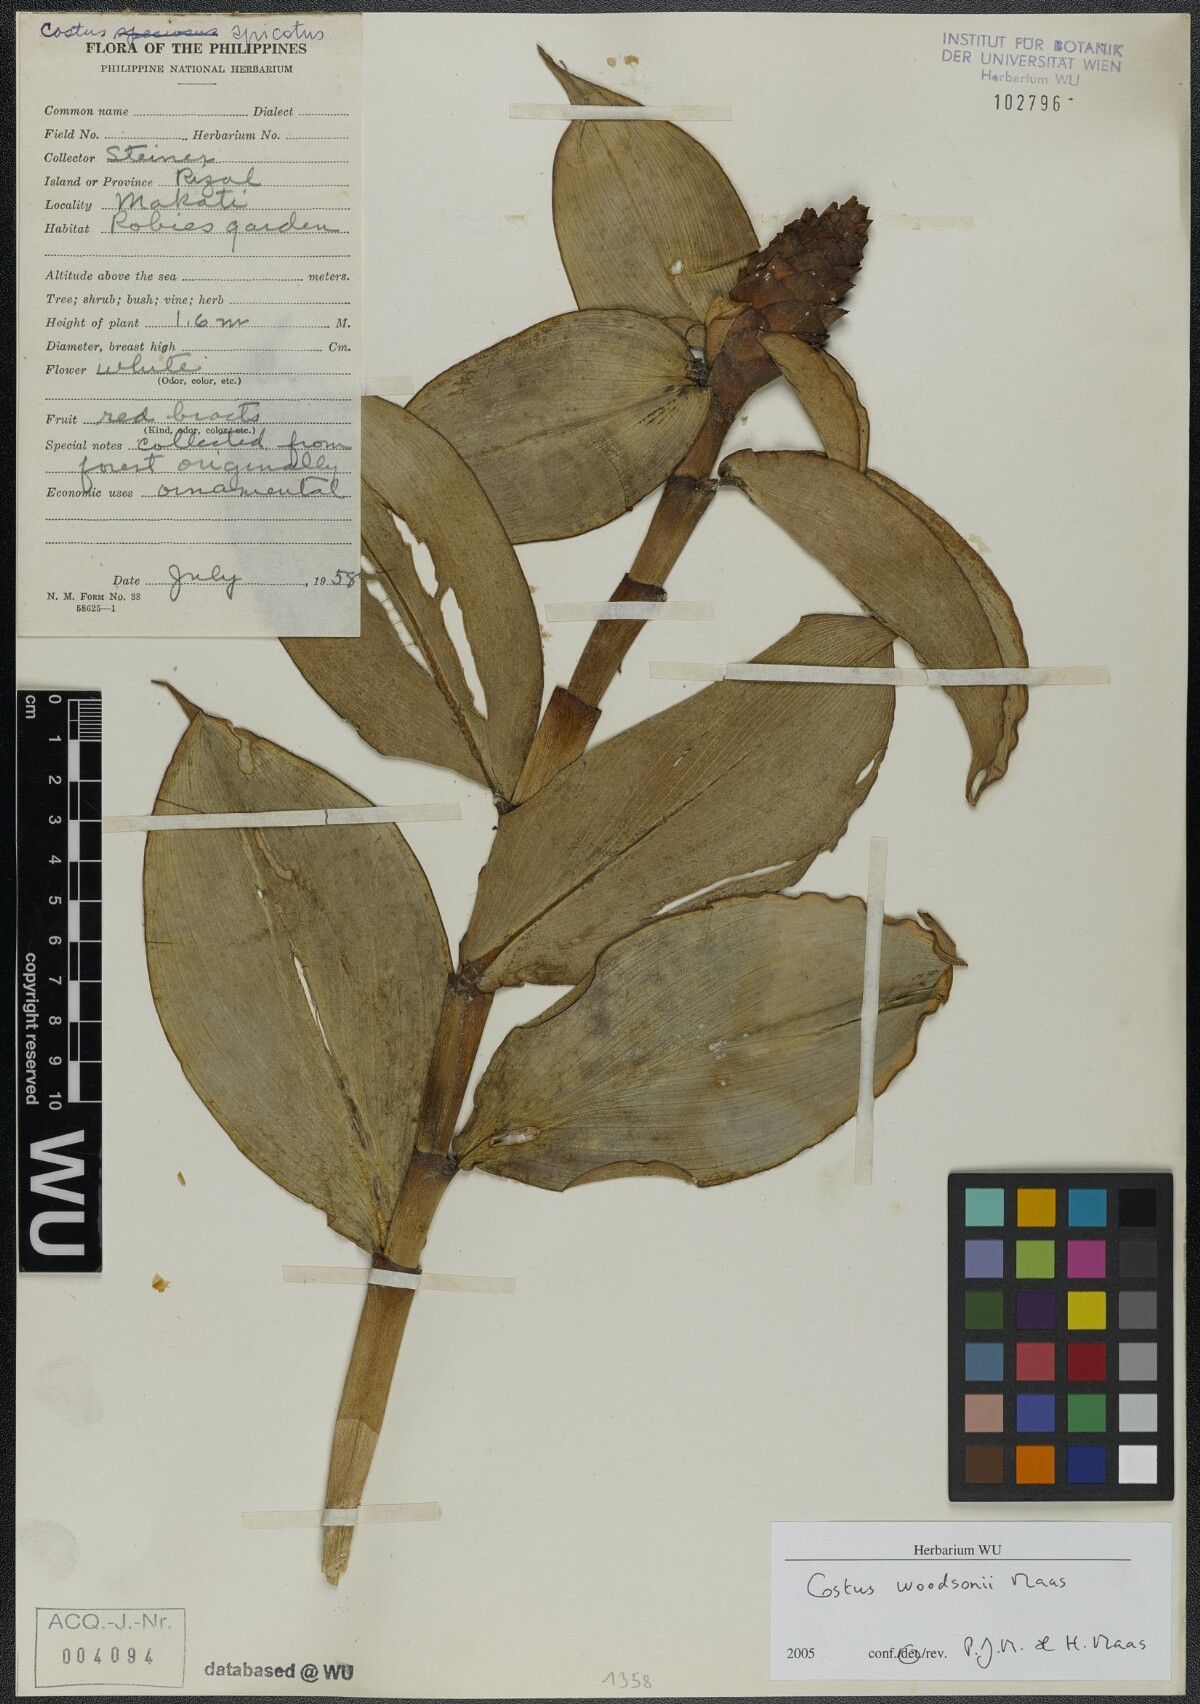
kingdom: Plantae
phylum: Tracheophyta
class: Liliopsida
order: Zingiberales
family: Costaceae
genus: Costus
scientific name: Costus woodsonii
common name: Scarlet spiral-ginger
